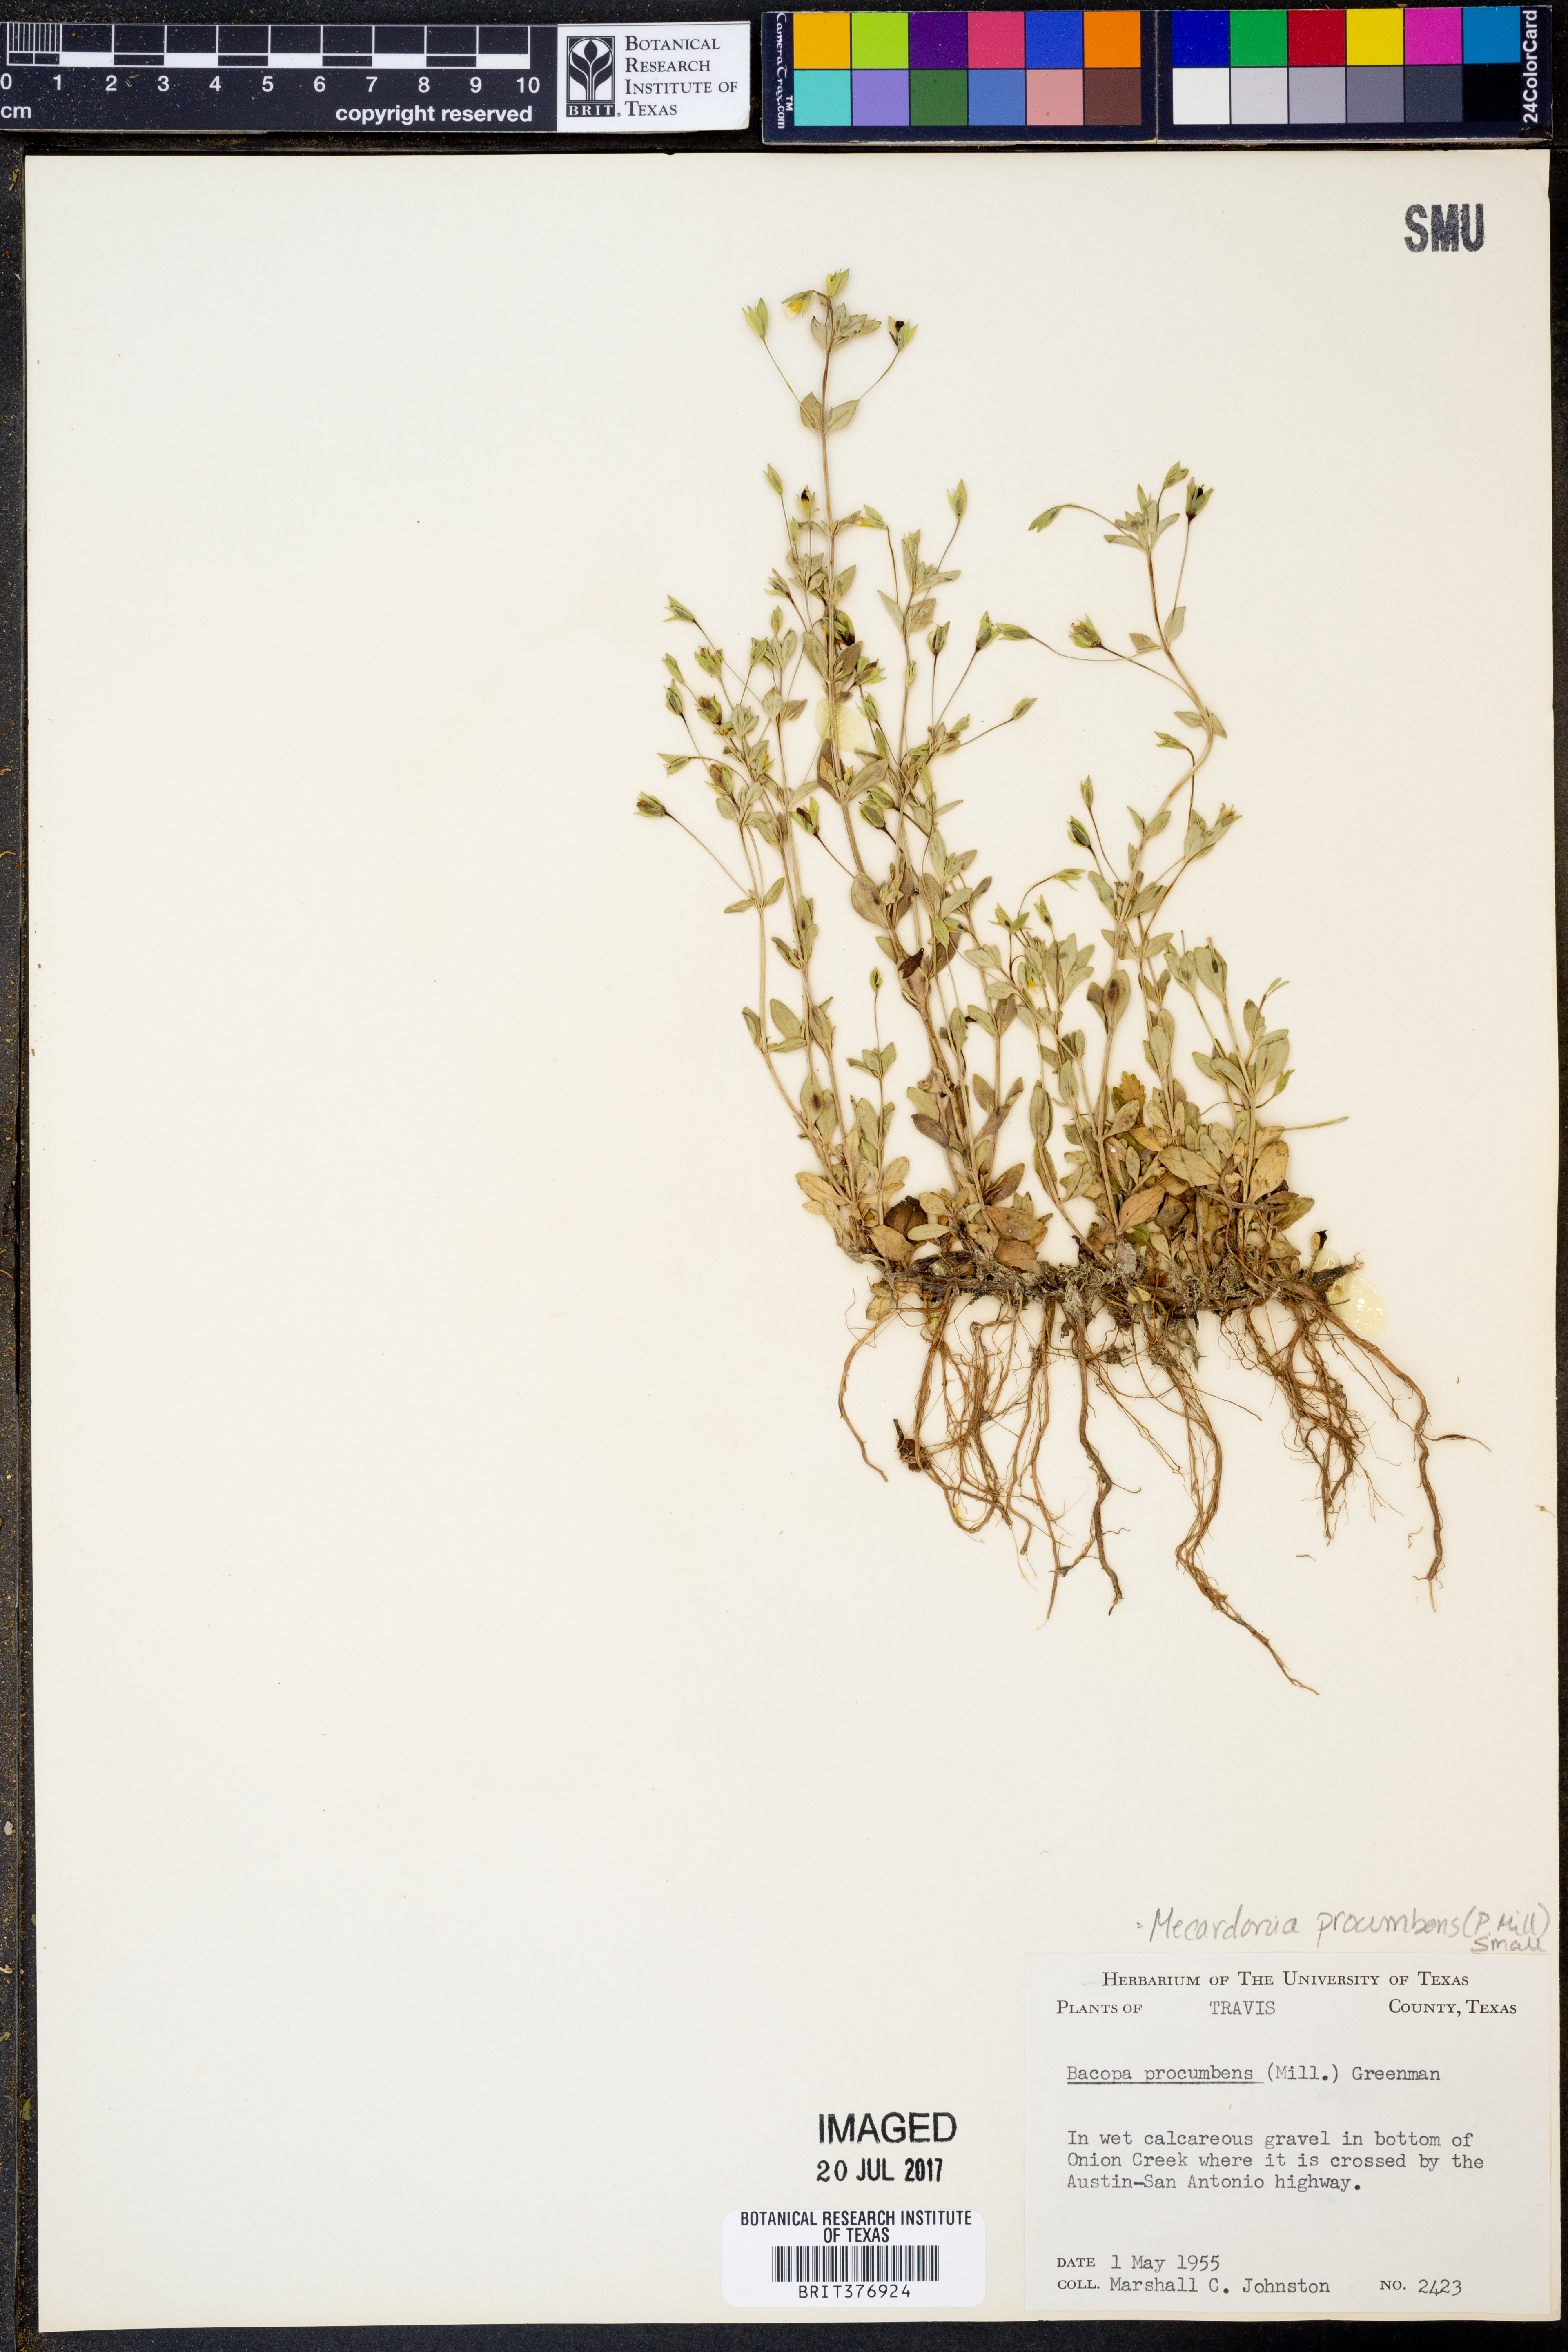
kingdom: Plantae
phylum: Tracheophyta
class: Magnoliopsida
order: Lamiales
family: Plantaginaceae
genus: Mecardonia
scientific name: Mecardonia procumbens
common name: Baby jump-up
